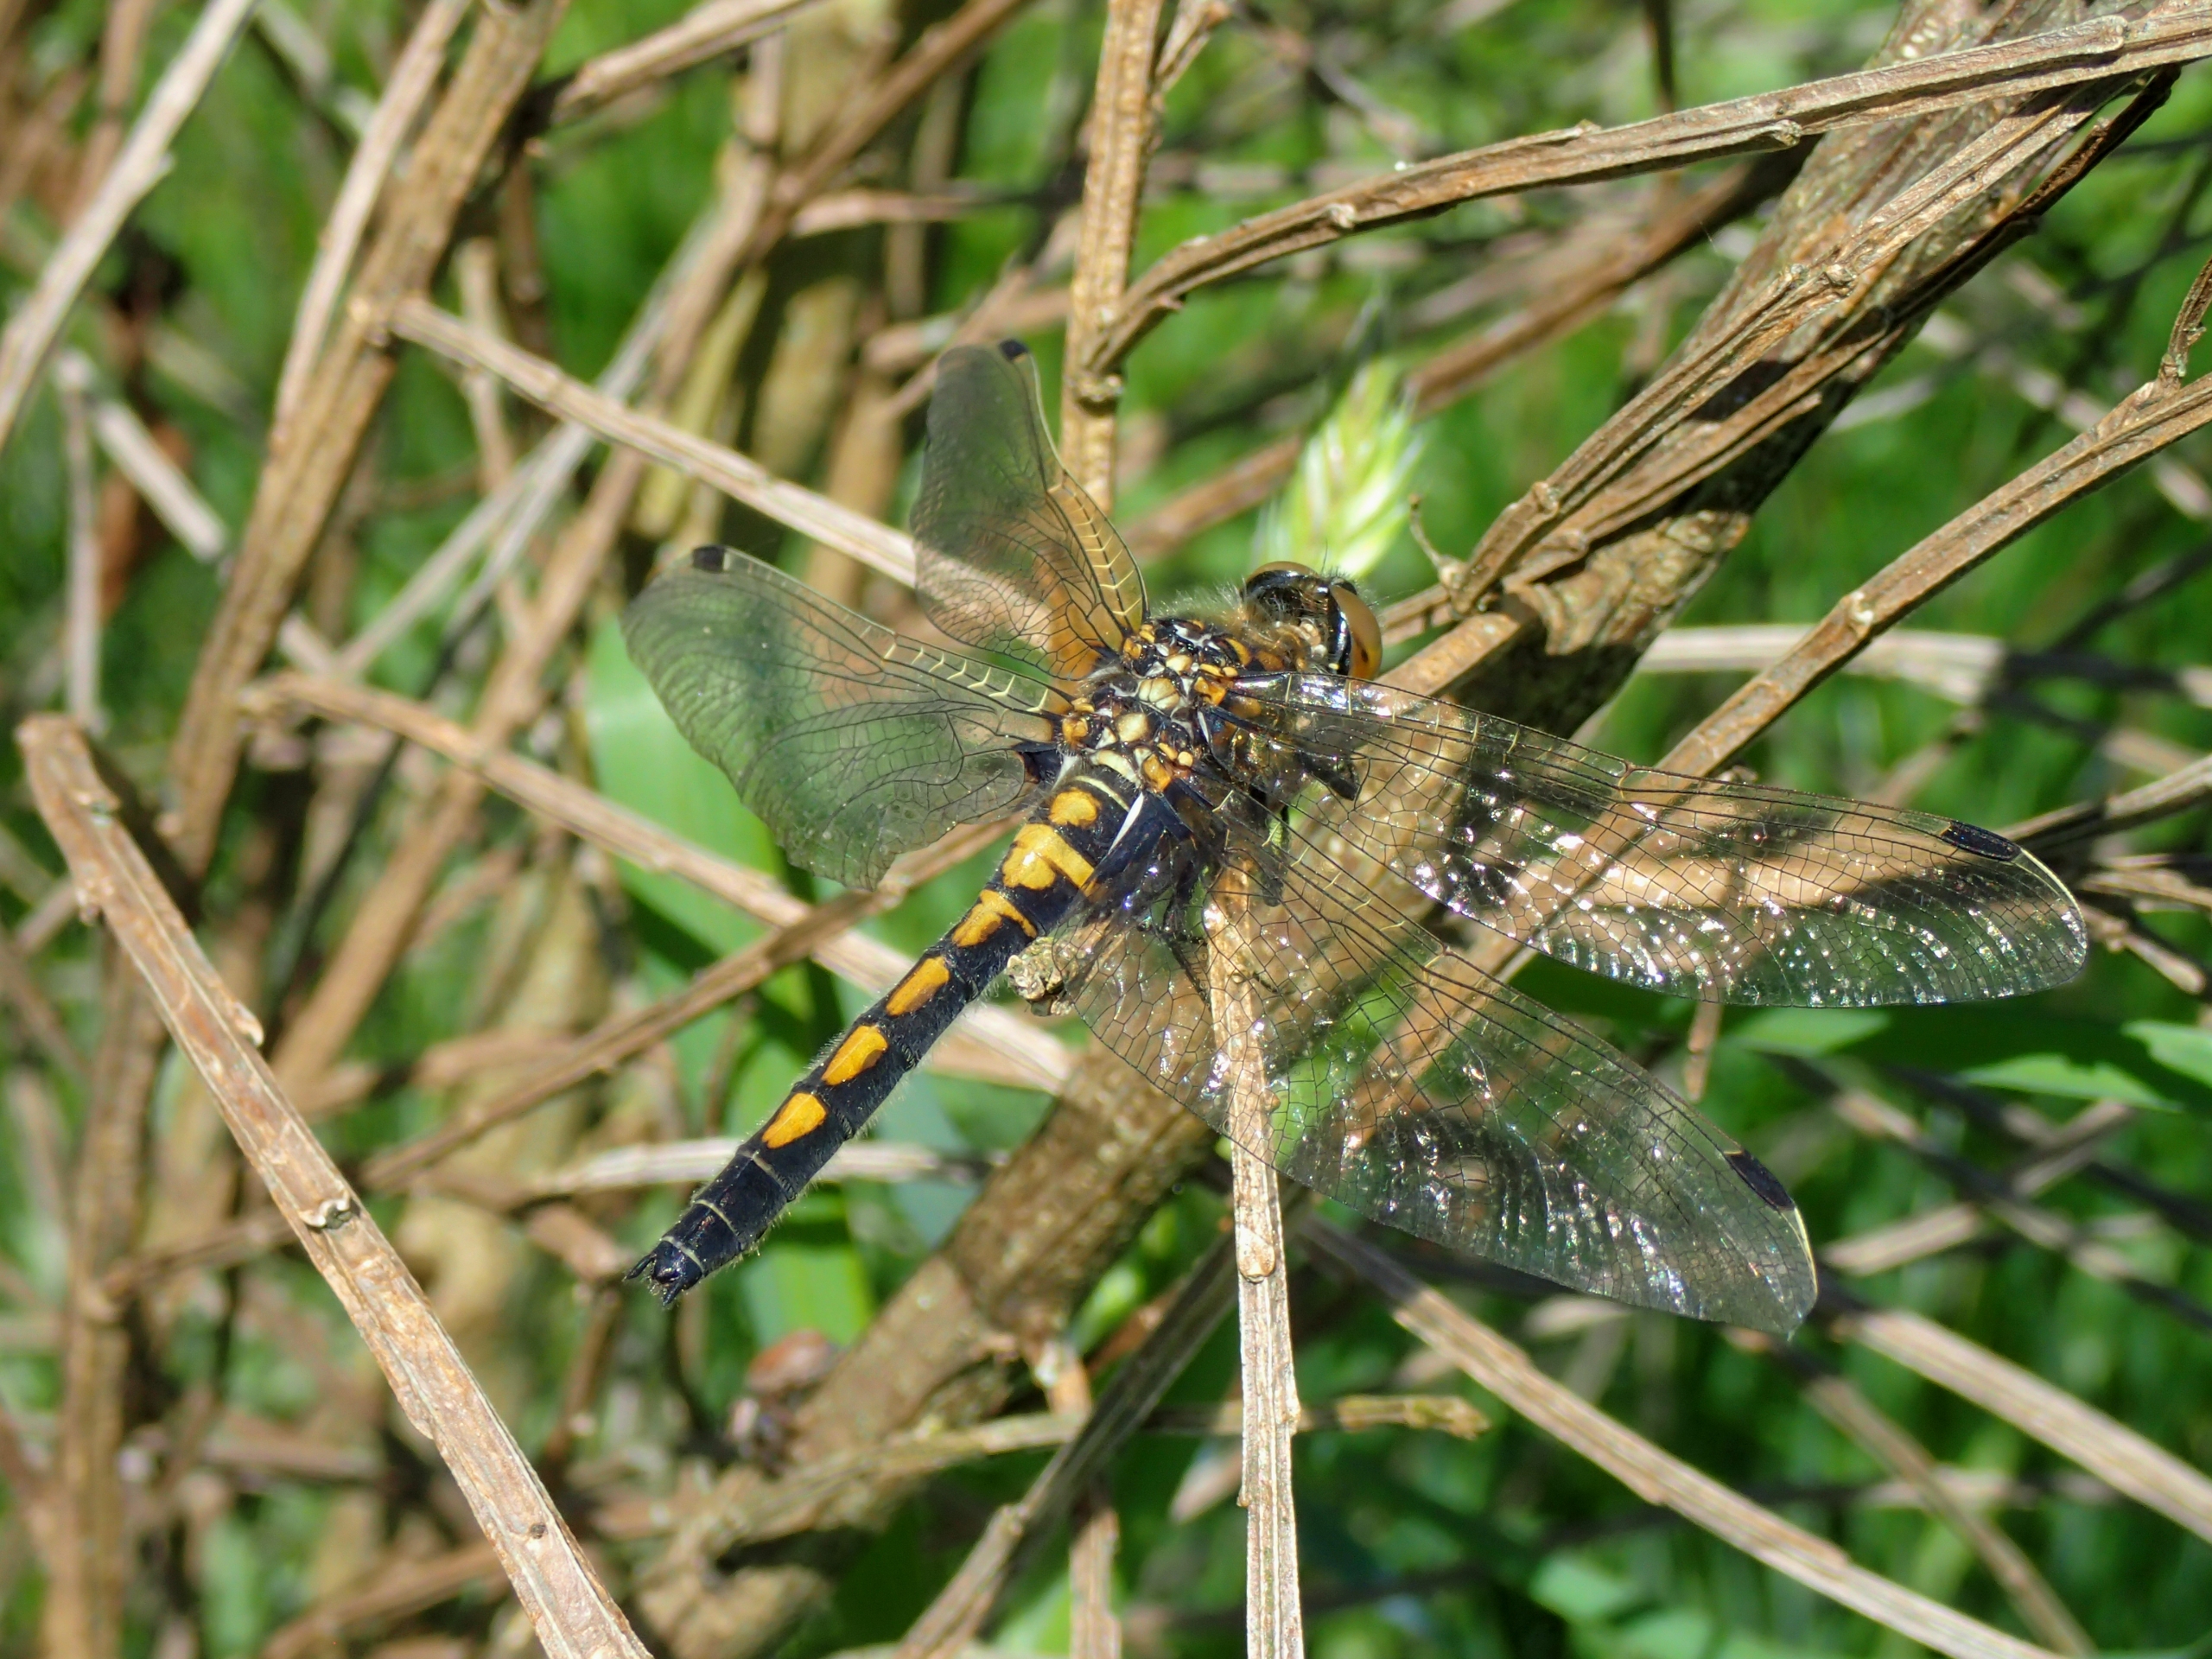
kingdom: Animalia
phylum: Arthropoda
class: Insecta
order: Odonata
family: Libellulidae
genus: Leucorrhinia
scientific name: Leucorrhinia rubicunda
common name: Nordisk kærguldsmed
